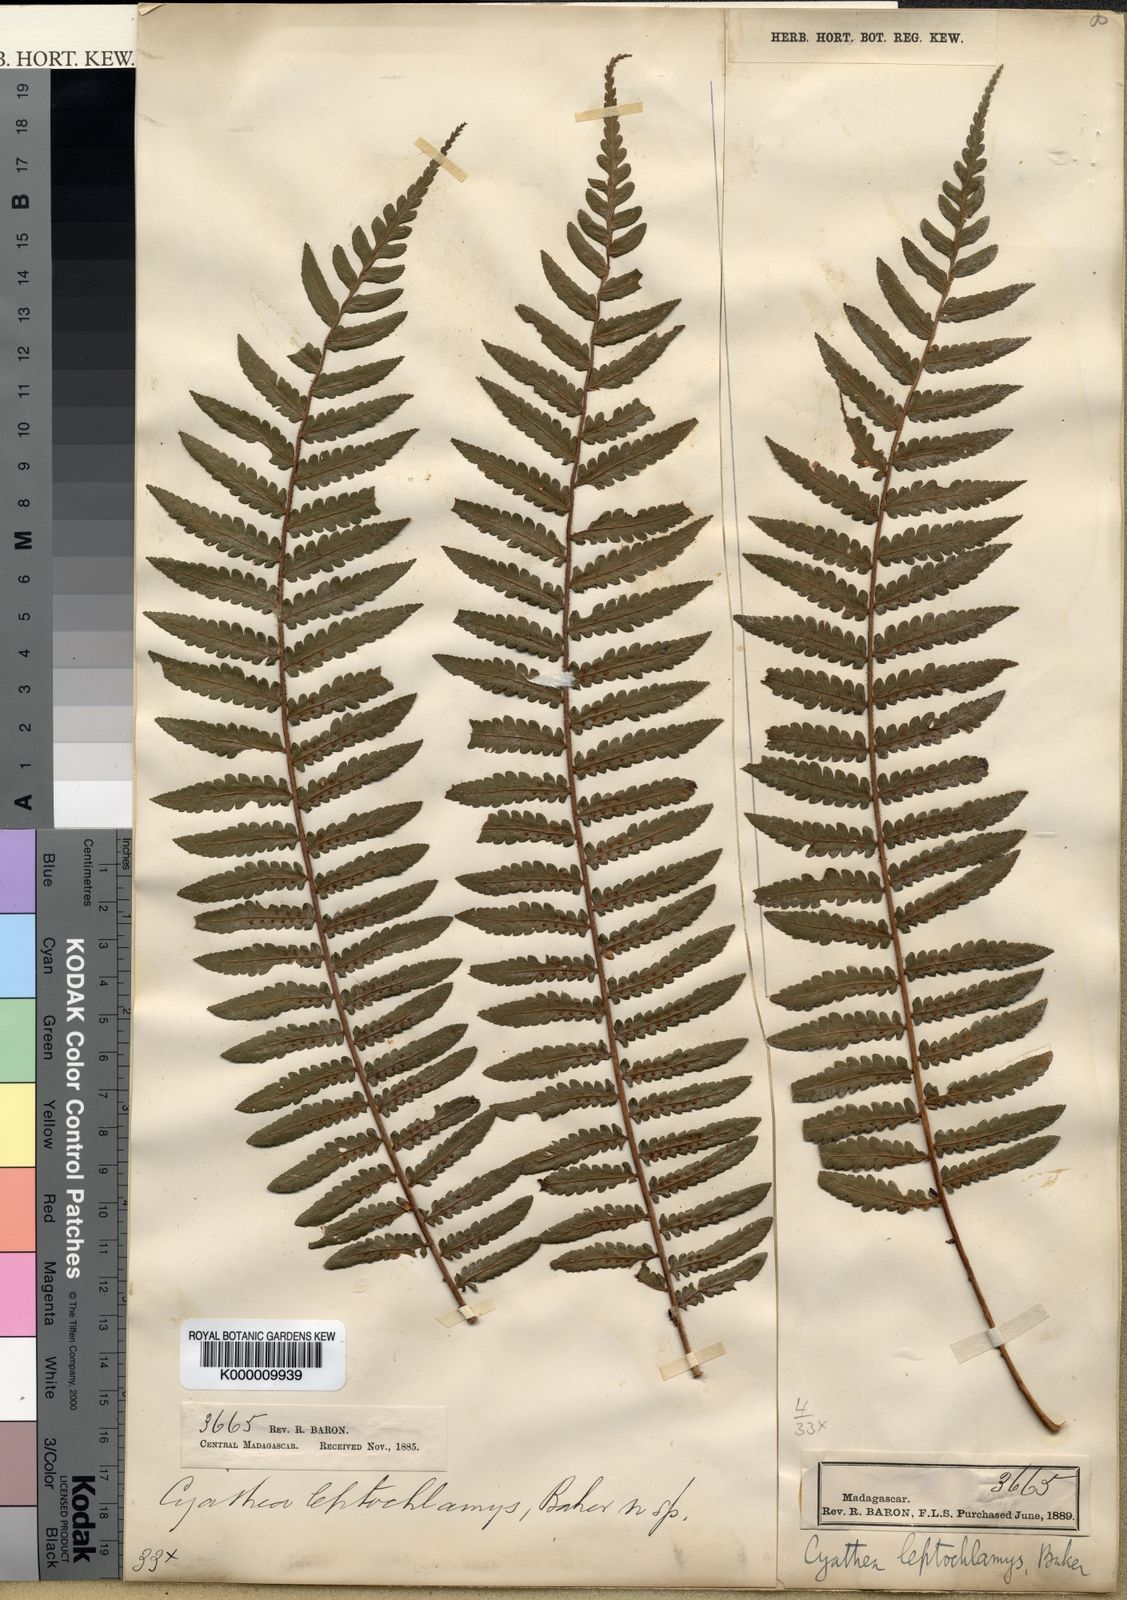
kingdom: Plantae
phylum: Tracheophyta
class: Polypodiopsida
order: Cyatheales
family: Cyatheaceae
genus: Alsophila
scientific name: Alsophila leptochlamys
